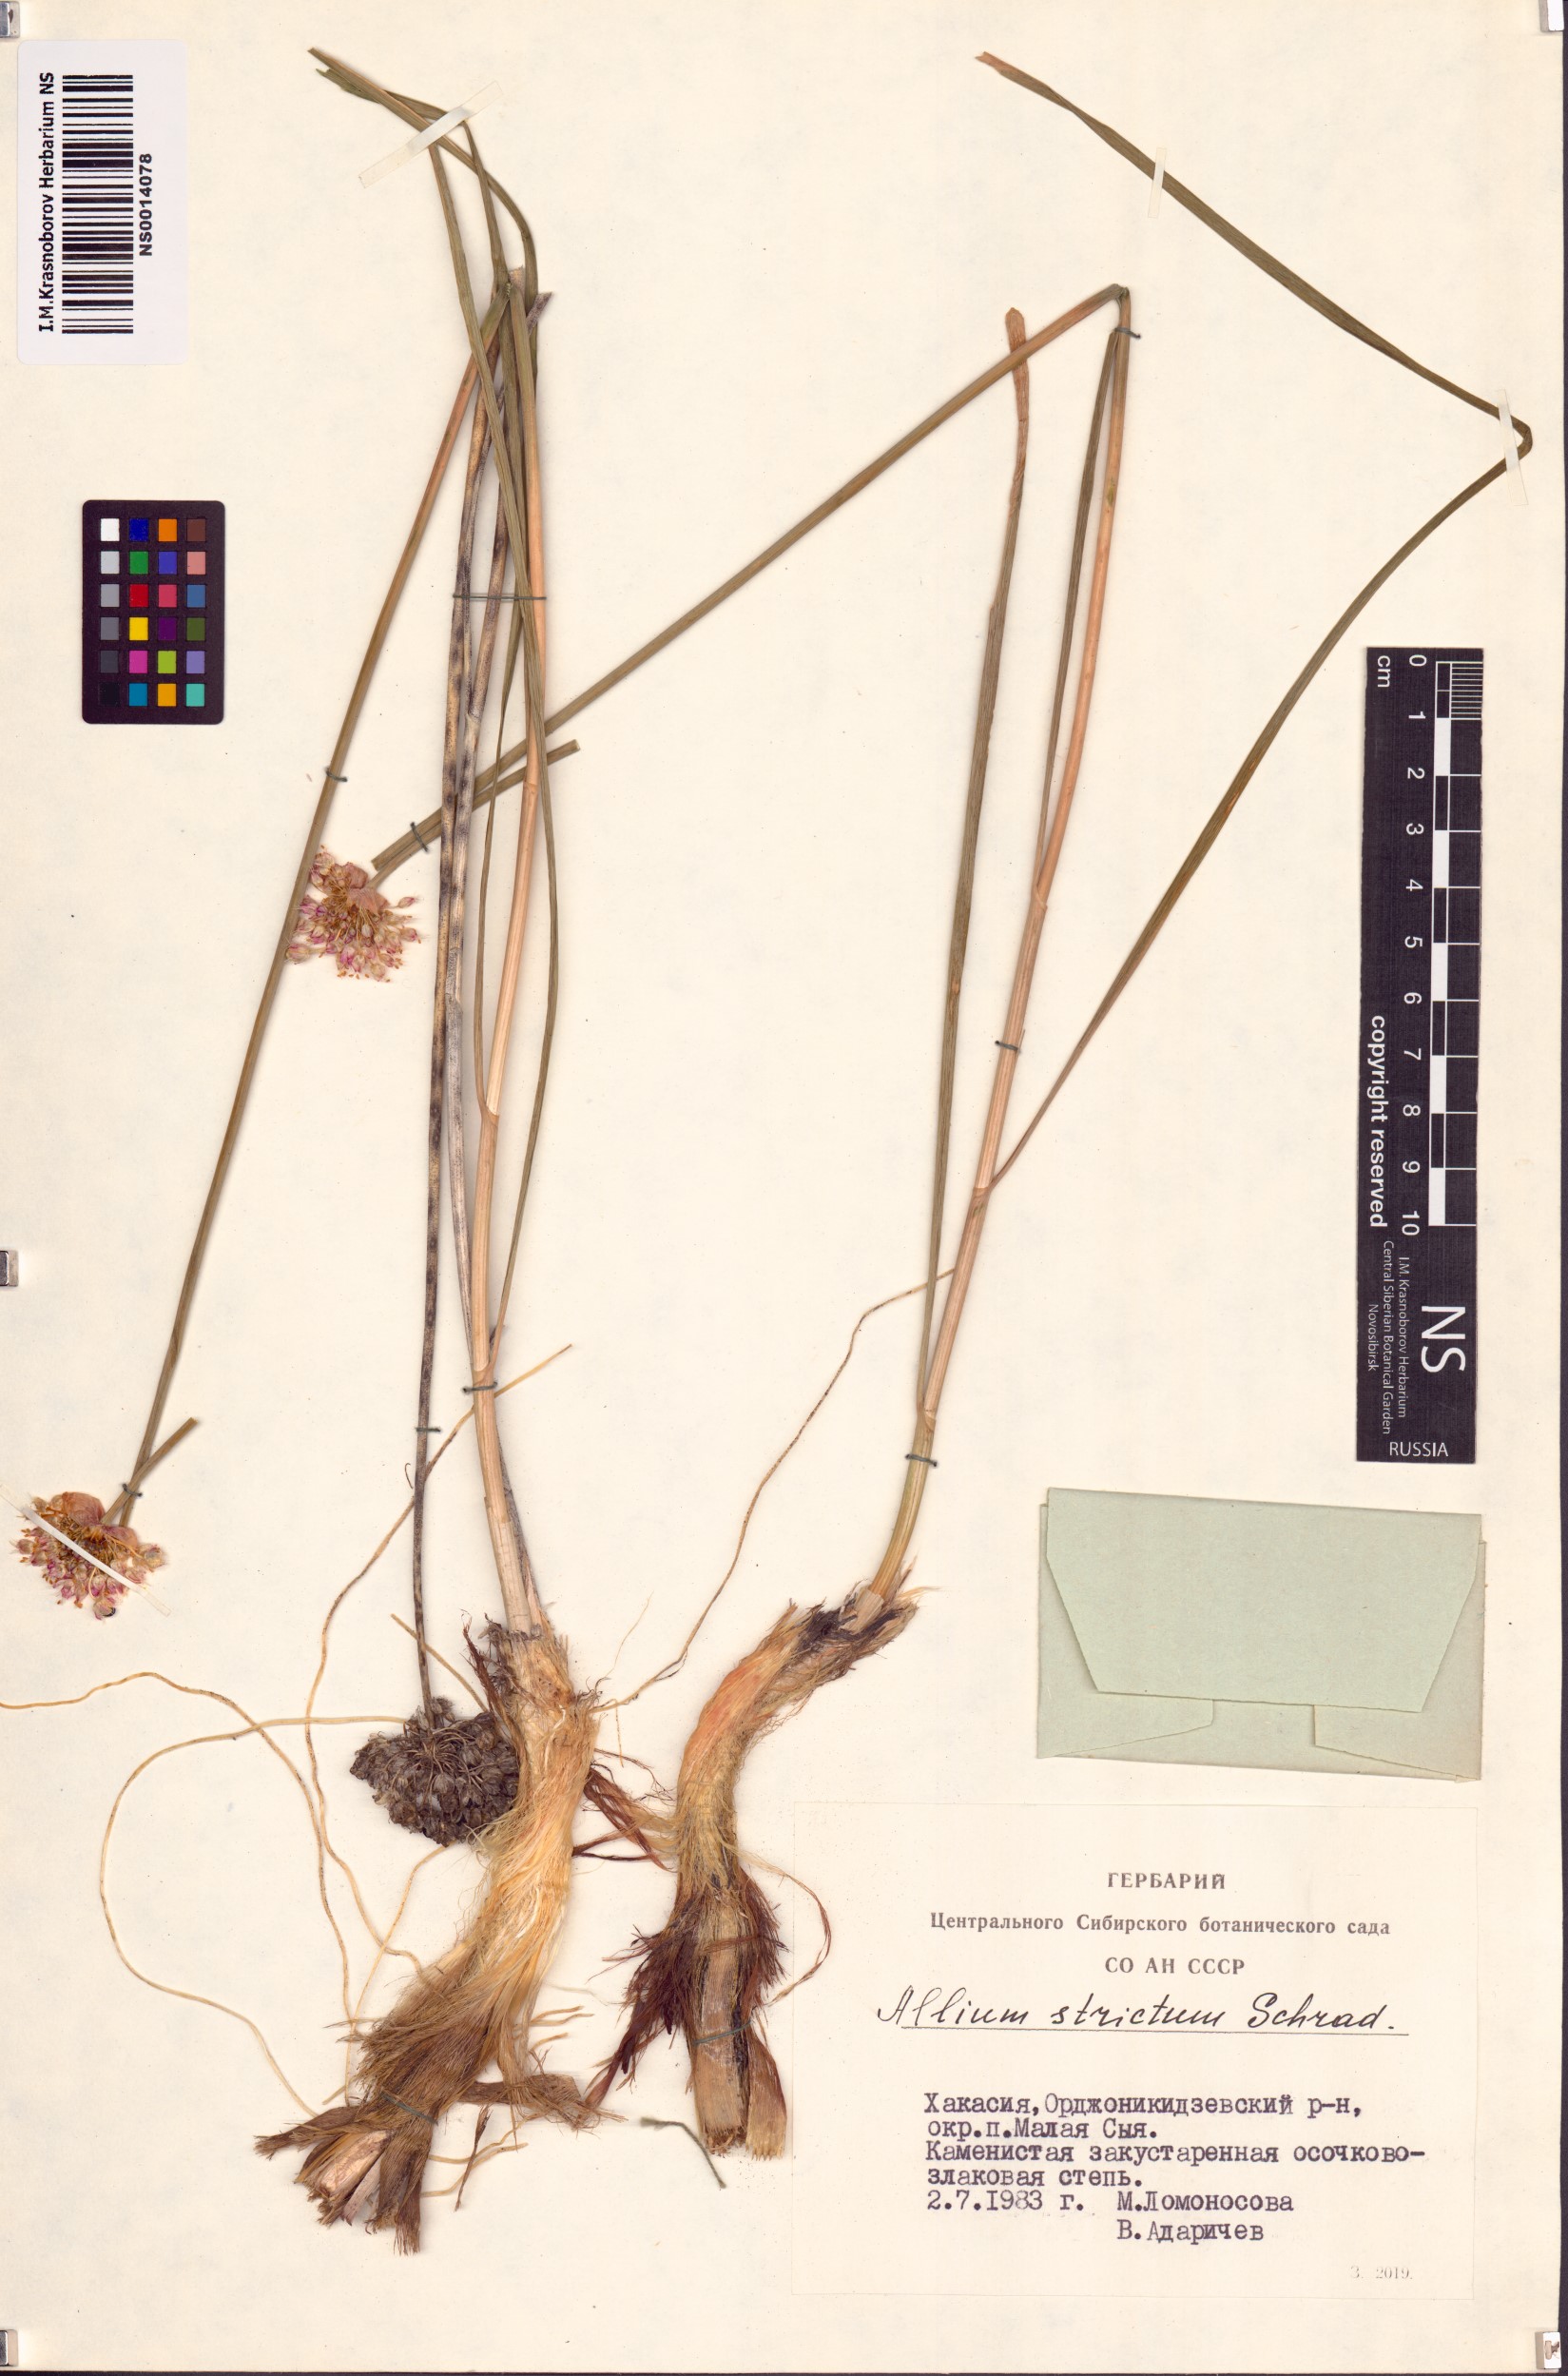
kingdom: Plantae
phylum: Tracheophyta
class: Liliopsida
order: Asparagales
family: Amaryllidaceae
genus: Allium
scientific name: Allium strictum
